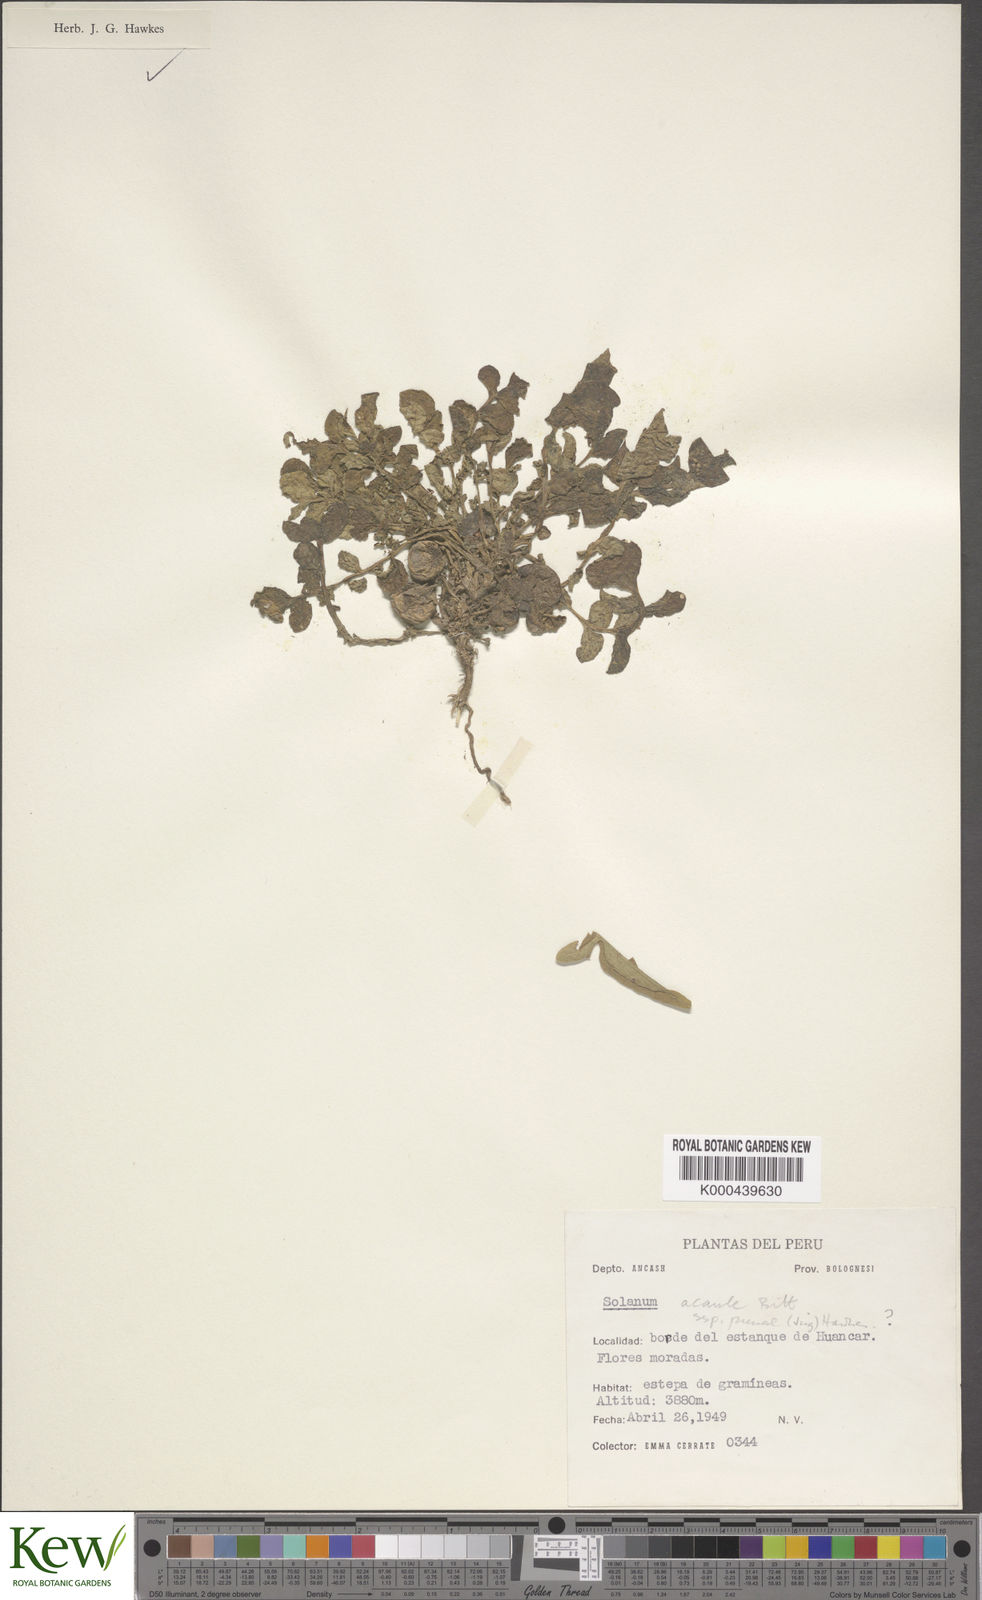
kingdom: Plantae
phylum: Tracheophyta
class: Magnoliopsida
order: Solanales
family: Solanaceae
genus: Solanum
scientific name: Solanum acaule
